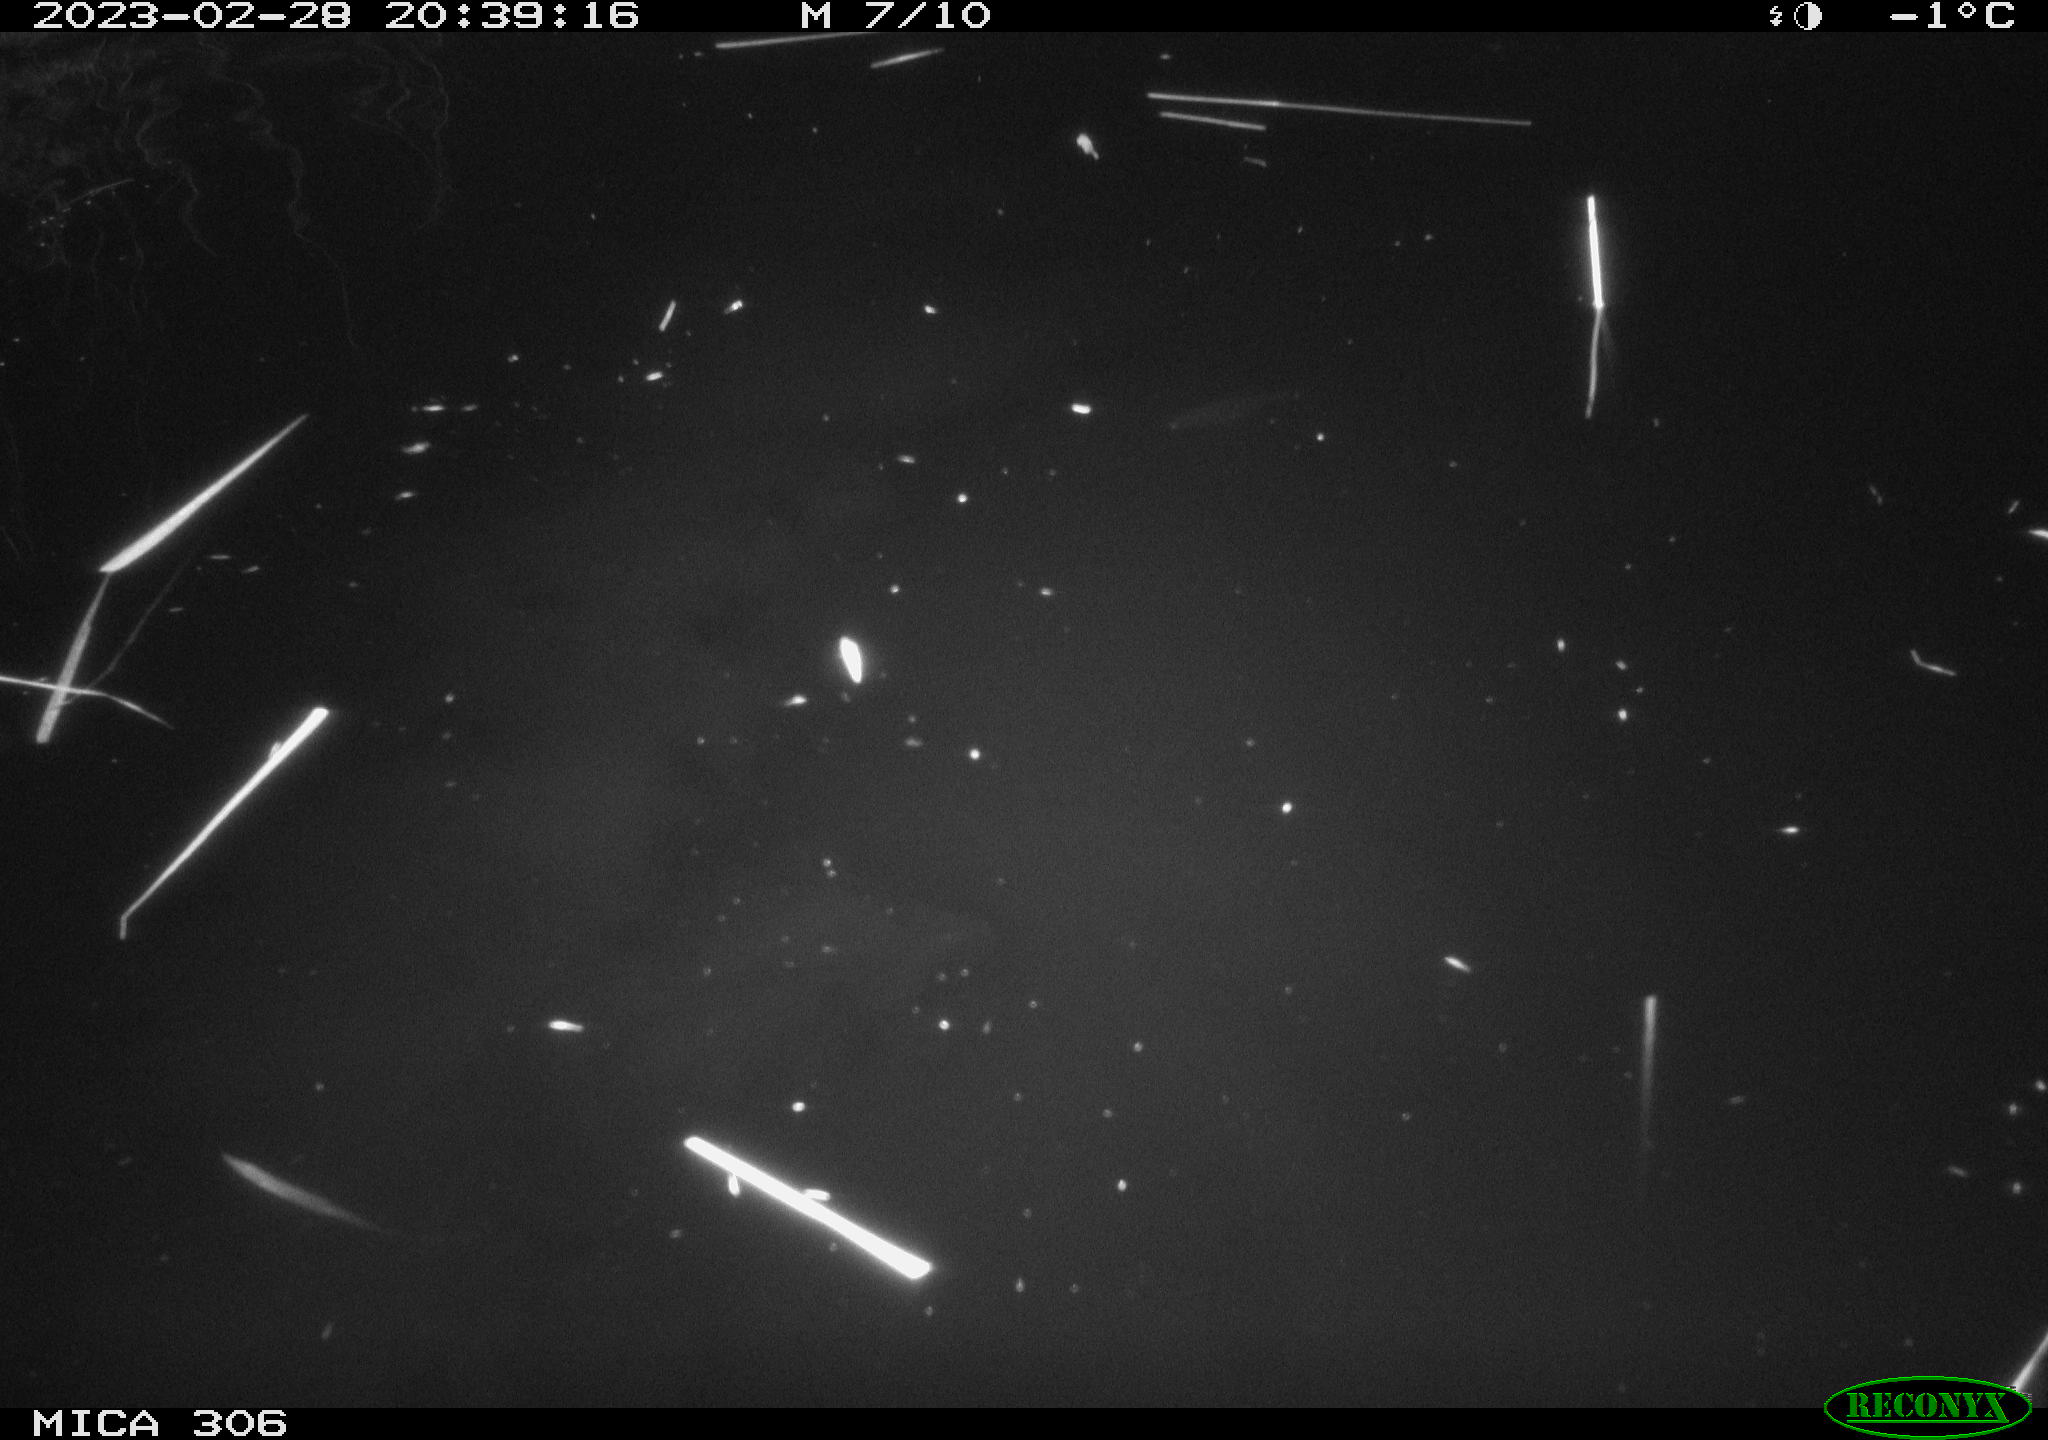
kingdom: Animalia
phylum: Chordata
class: Mammalia
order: Rodentia
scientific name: Rodentia
